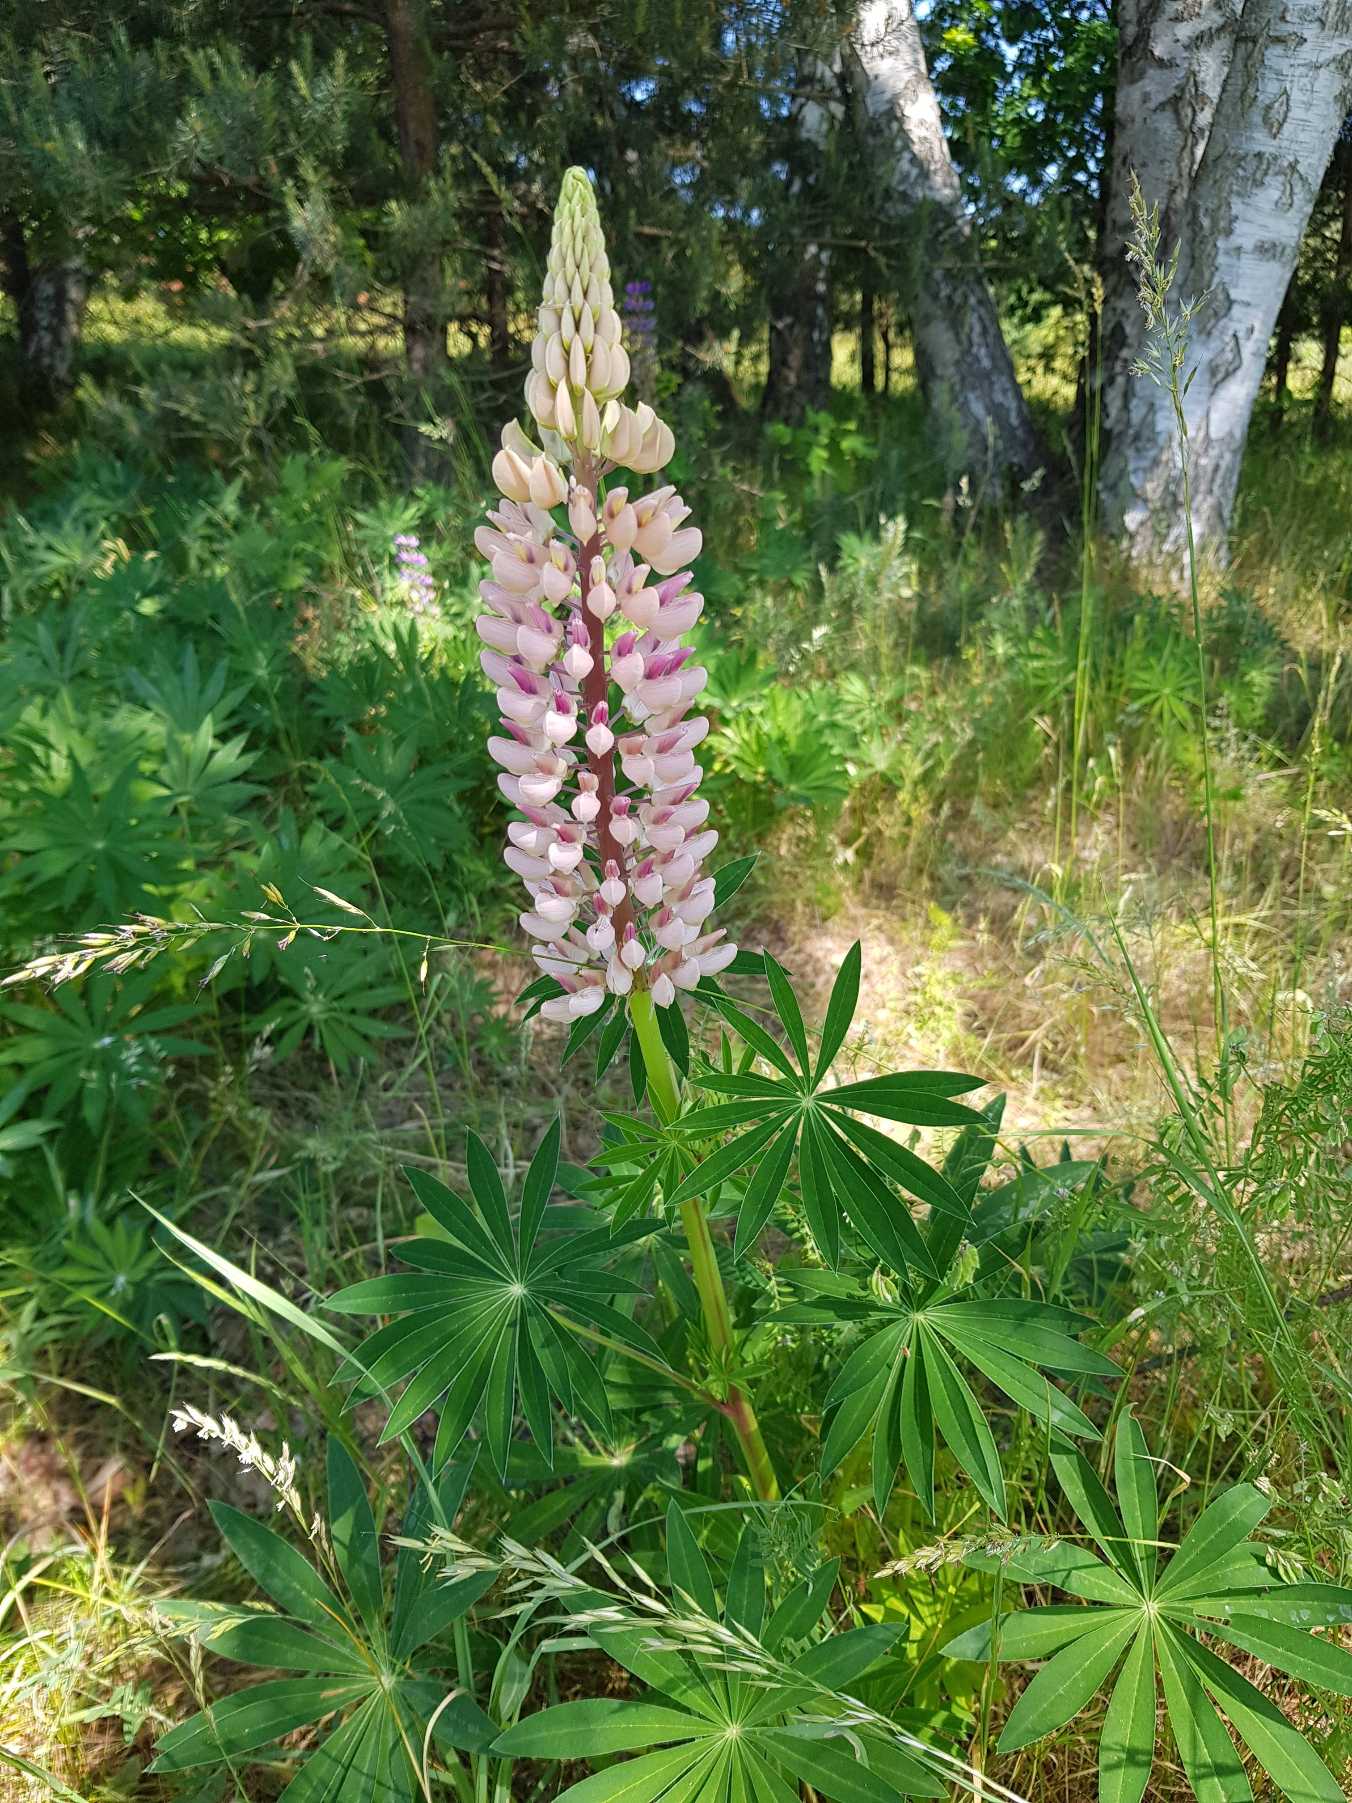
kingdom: Plantae
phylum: Tracheophyta
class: Magnoliopsida
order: Fabales
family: Fabaceae
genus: Lupinus
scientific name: Lupinus polyphyllus
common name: Mangebladet lupin
